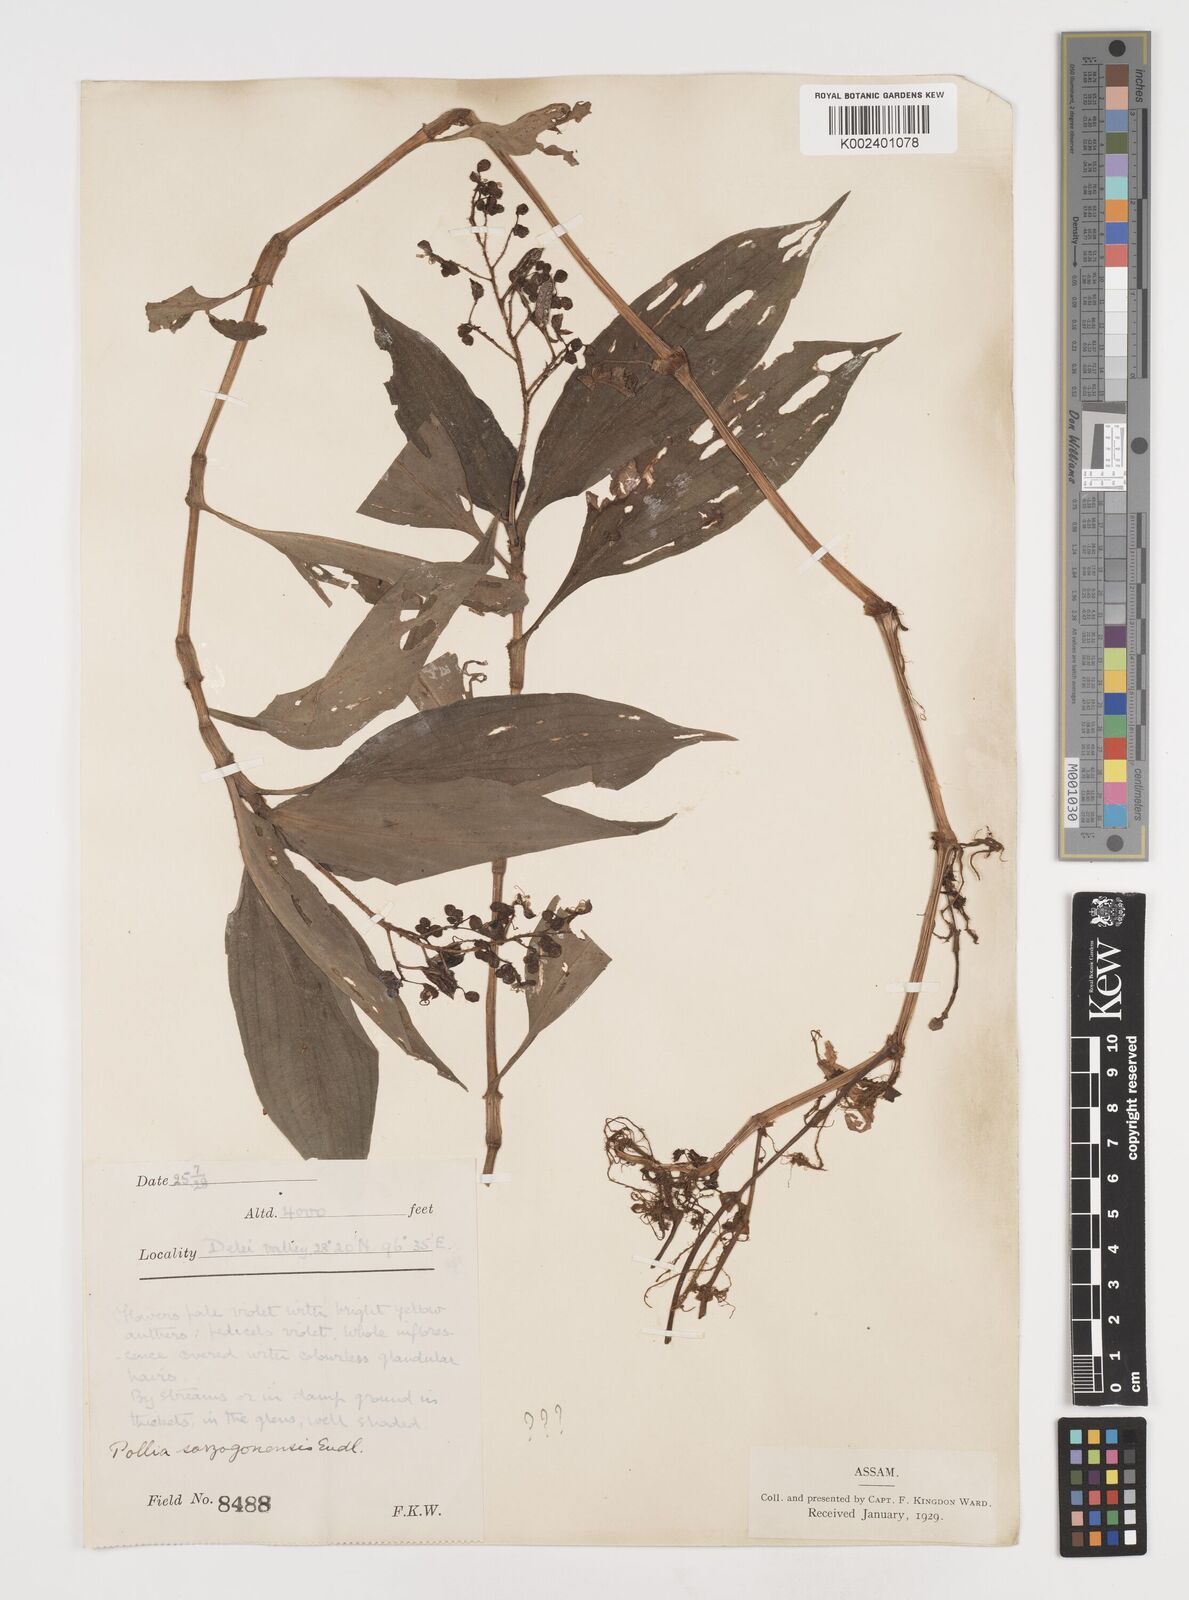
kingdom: Plantae
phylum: Tracheophyta
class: Liliopsida
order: Commelinales
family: Commelinaceae
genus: Pollia
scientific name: Pollia secundiflora
